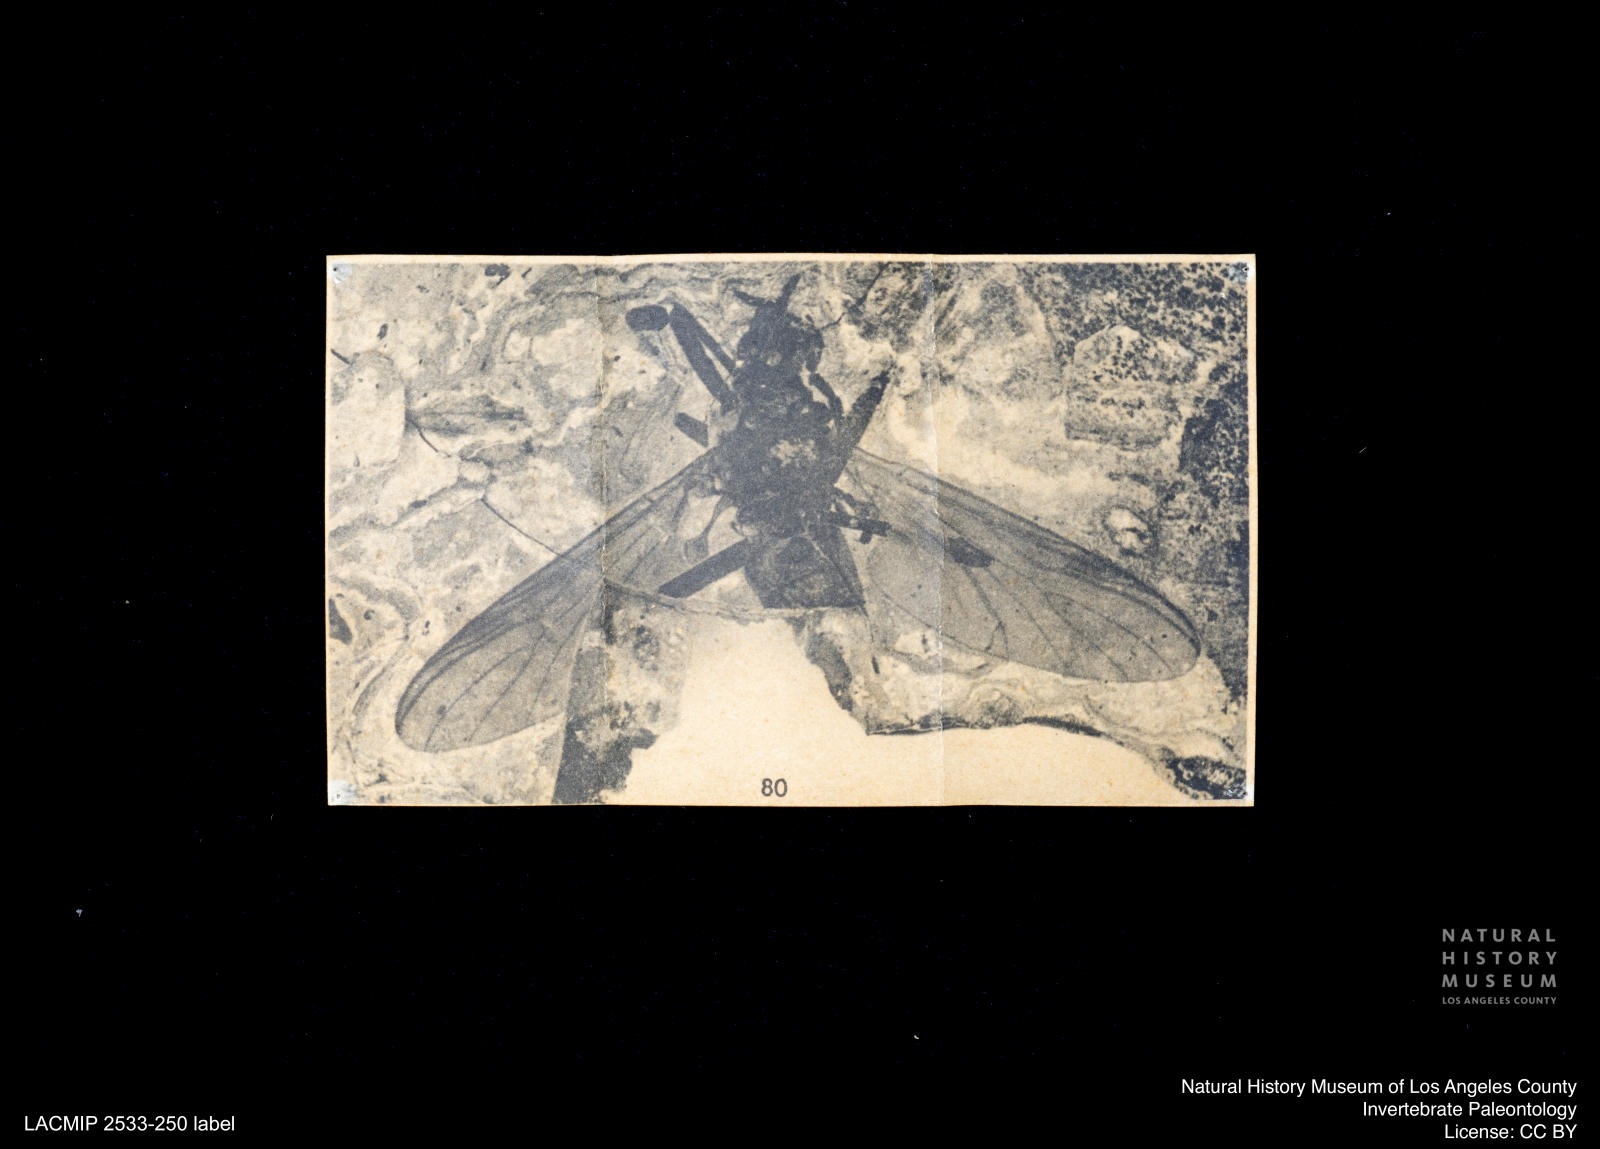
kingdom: Animalia
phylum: Arthropoda
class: Insecta
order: Diptera
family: Bibionidae
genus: Penthetria
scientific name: Penthetria aestimata
